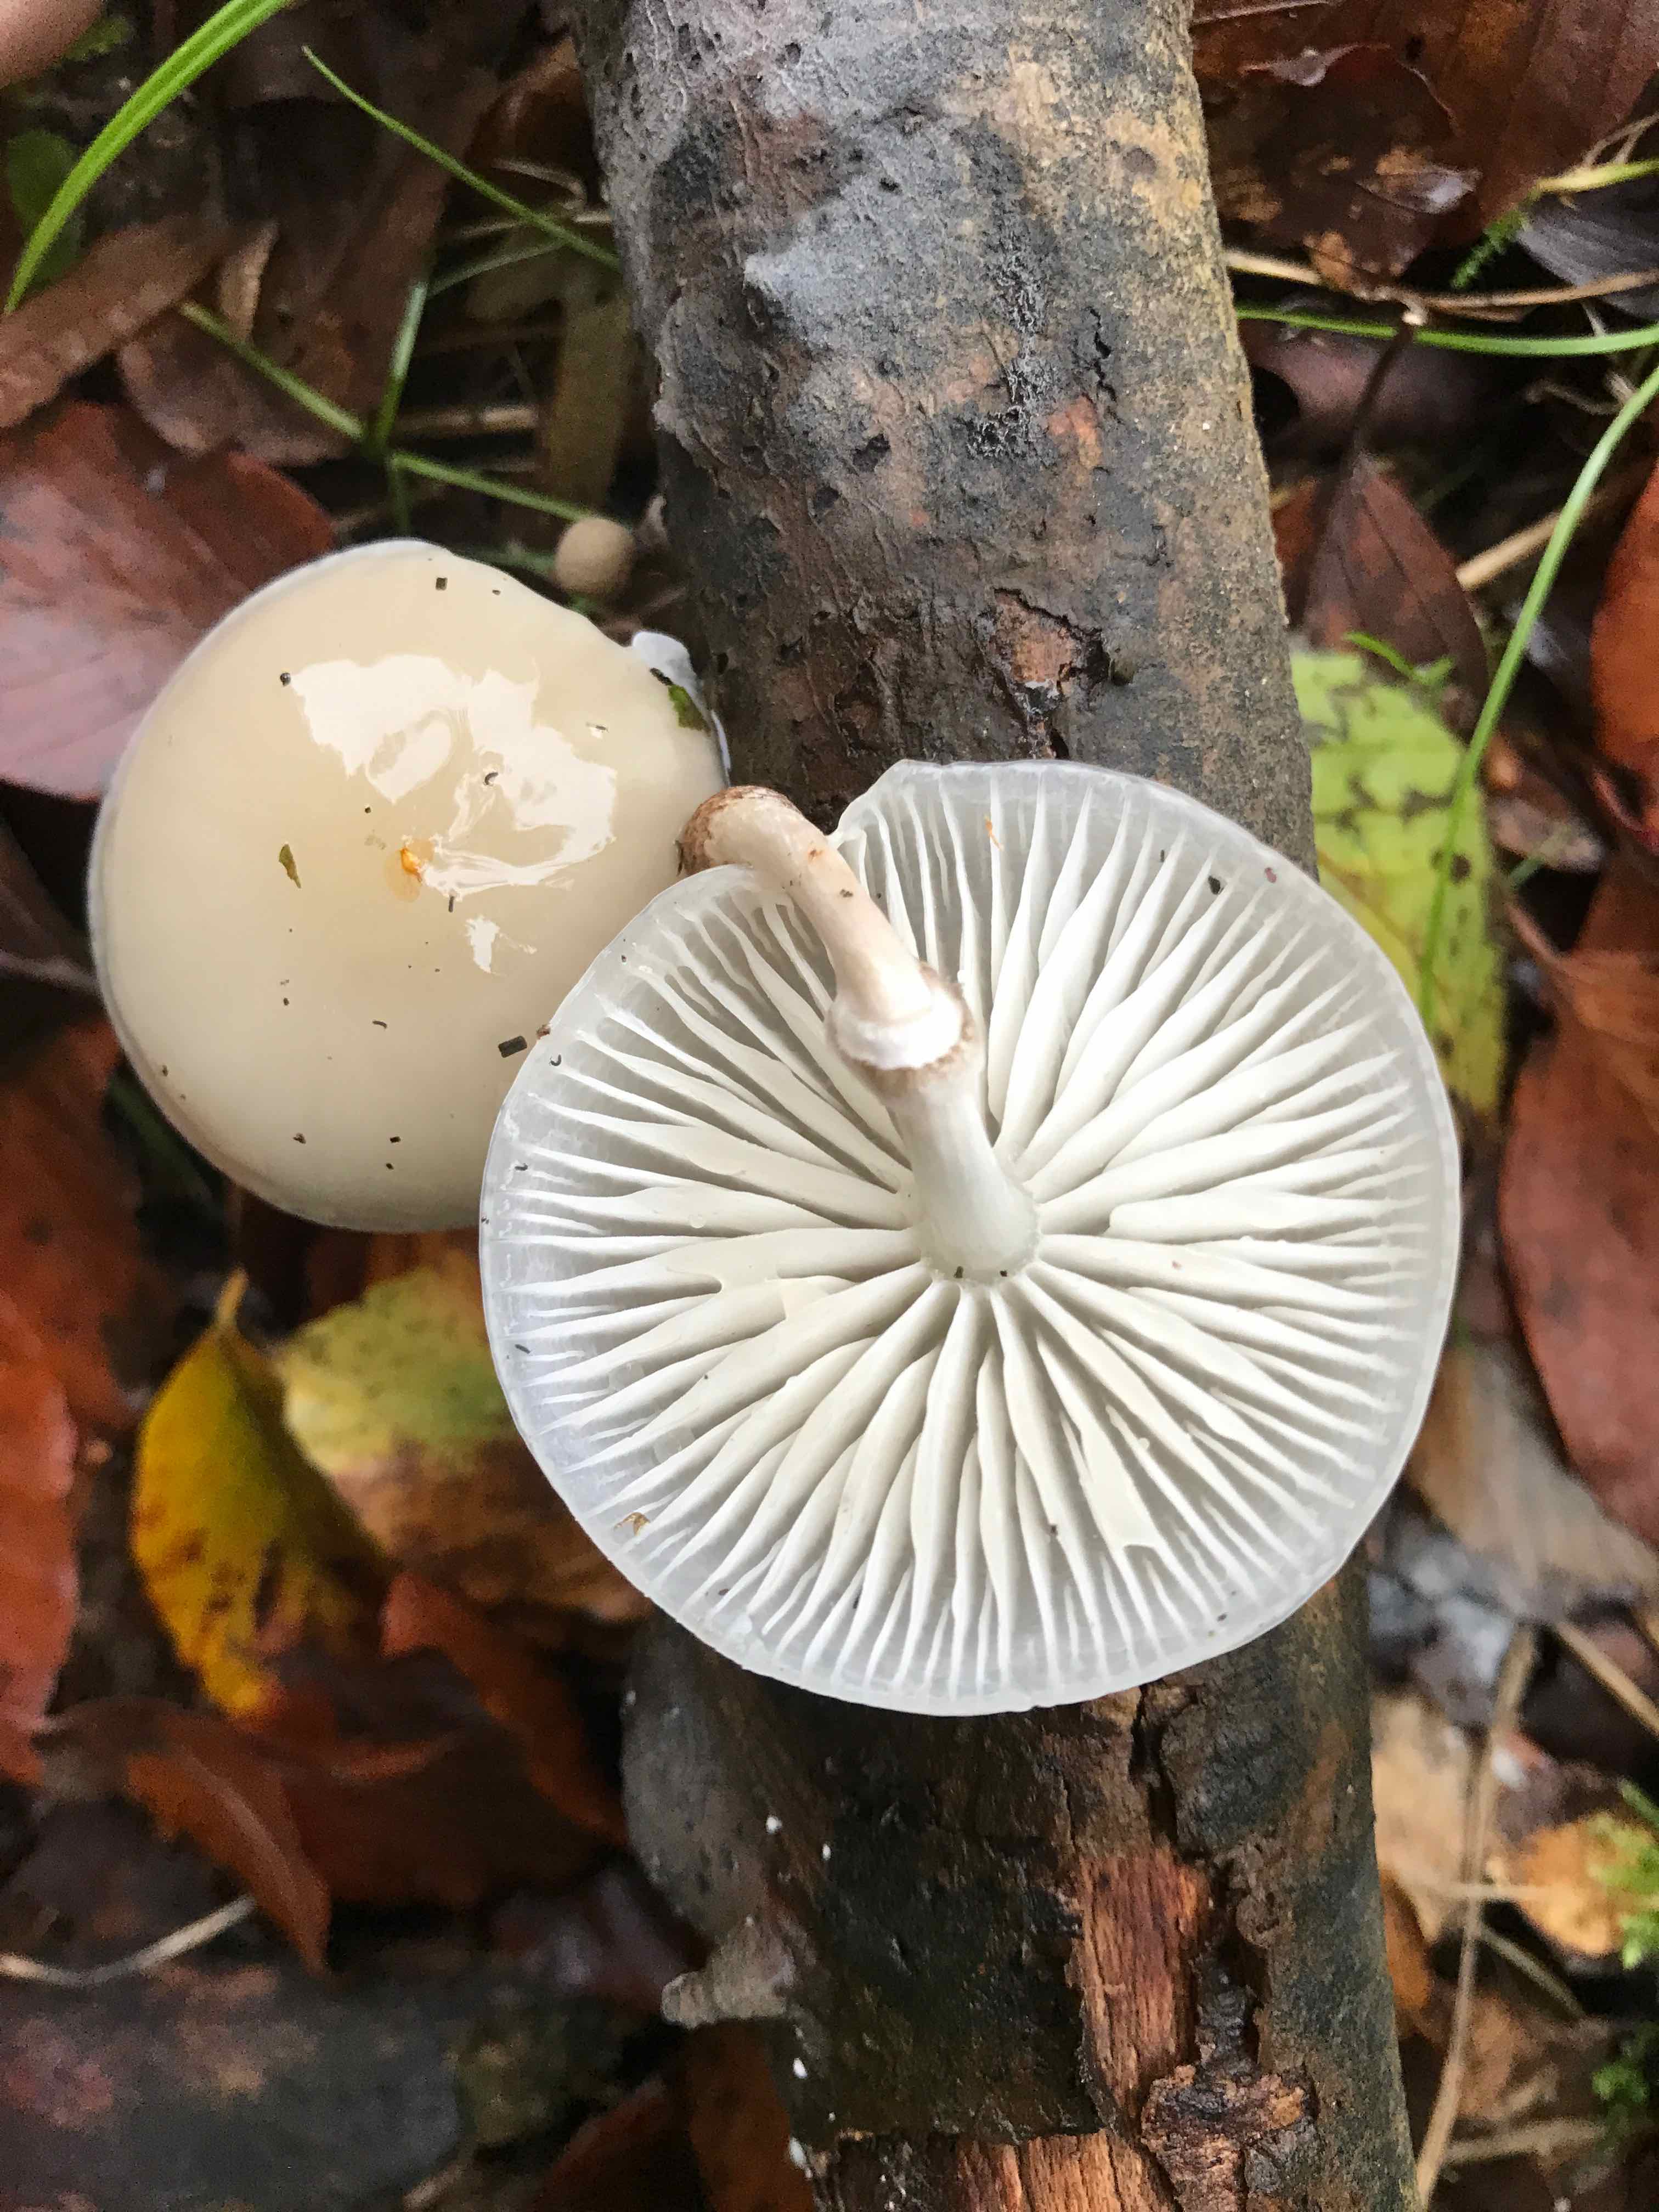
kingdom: Fungi
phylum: Basidiomycota
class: Agaricomycetes
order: Agaricales
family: Physalacriaceae
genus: Mucidula
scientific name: Mucidula mucida
